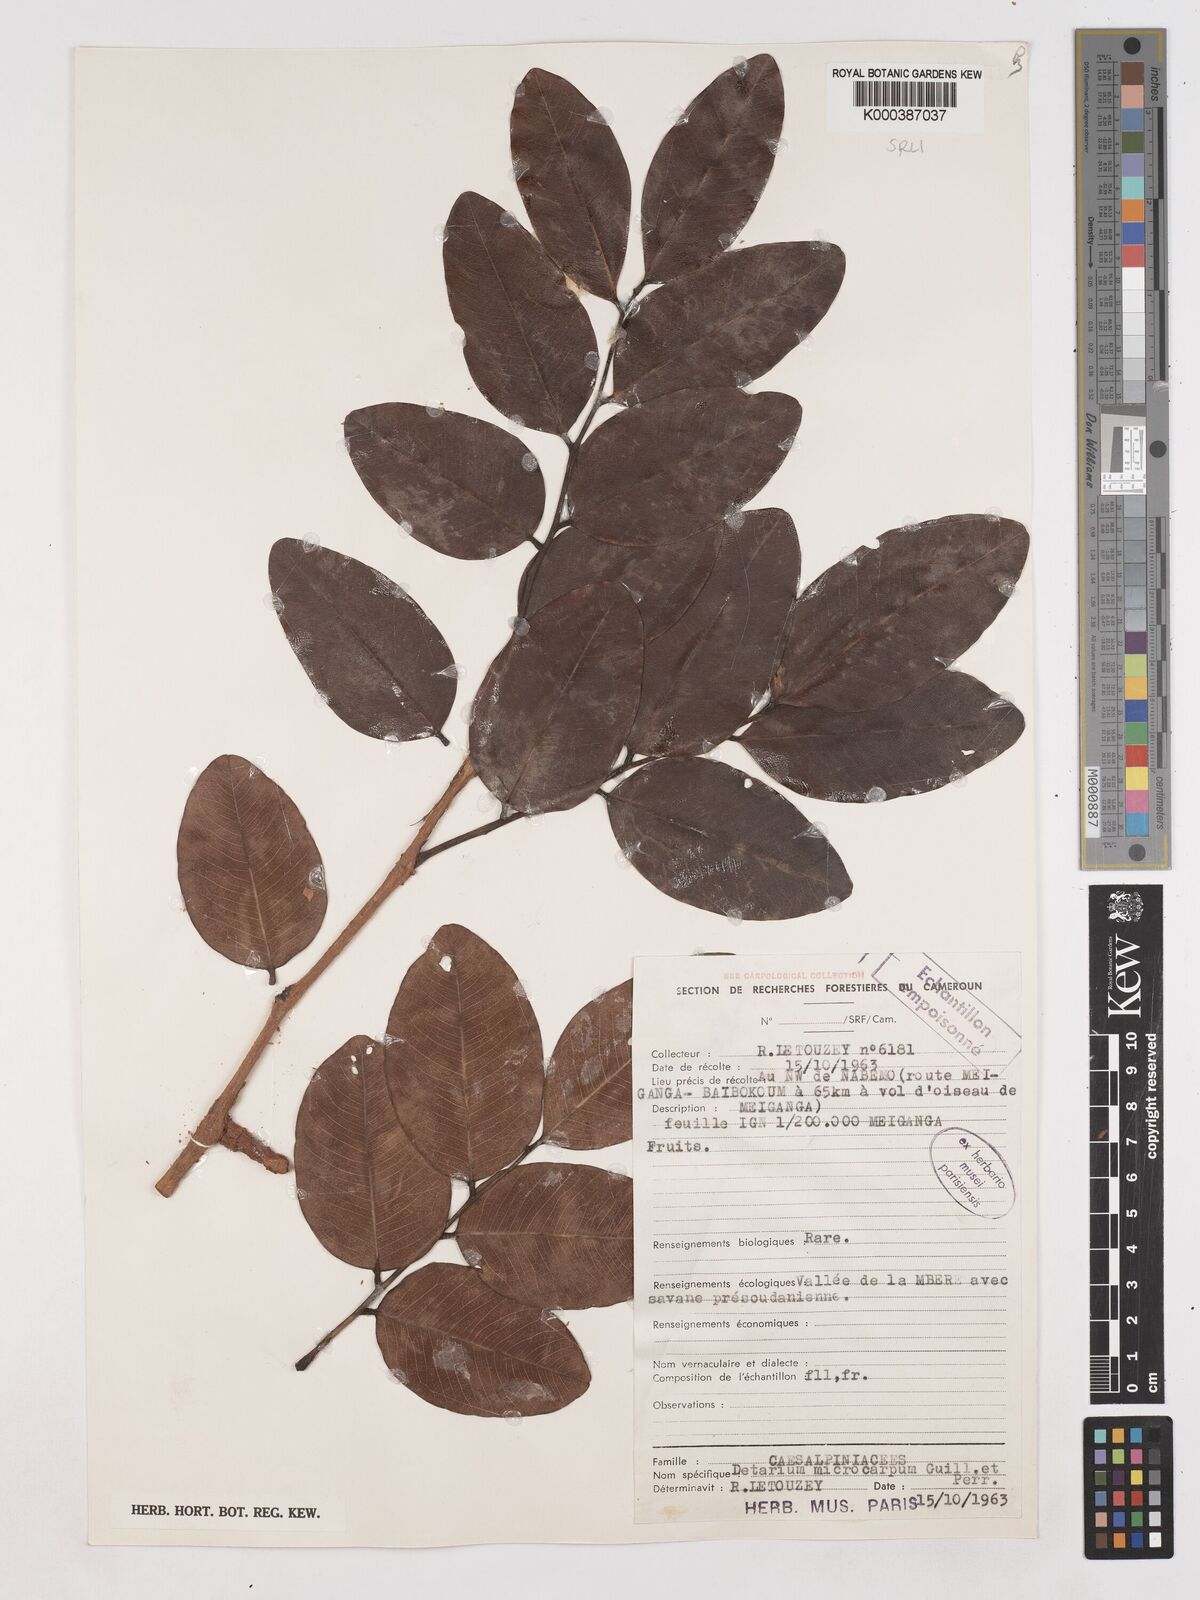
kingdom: Plantae
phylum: Tracheophyta
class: Magnoliopsida
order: Fabales
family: Fabaceae
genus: Detarium
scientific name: Detarium microcarpum
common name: Sweet dattock
